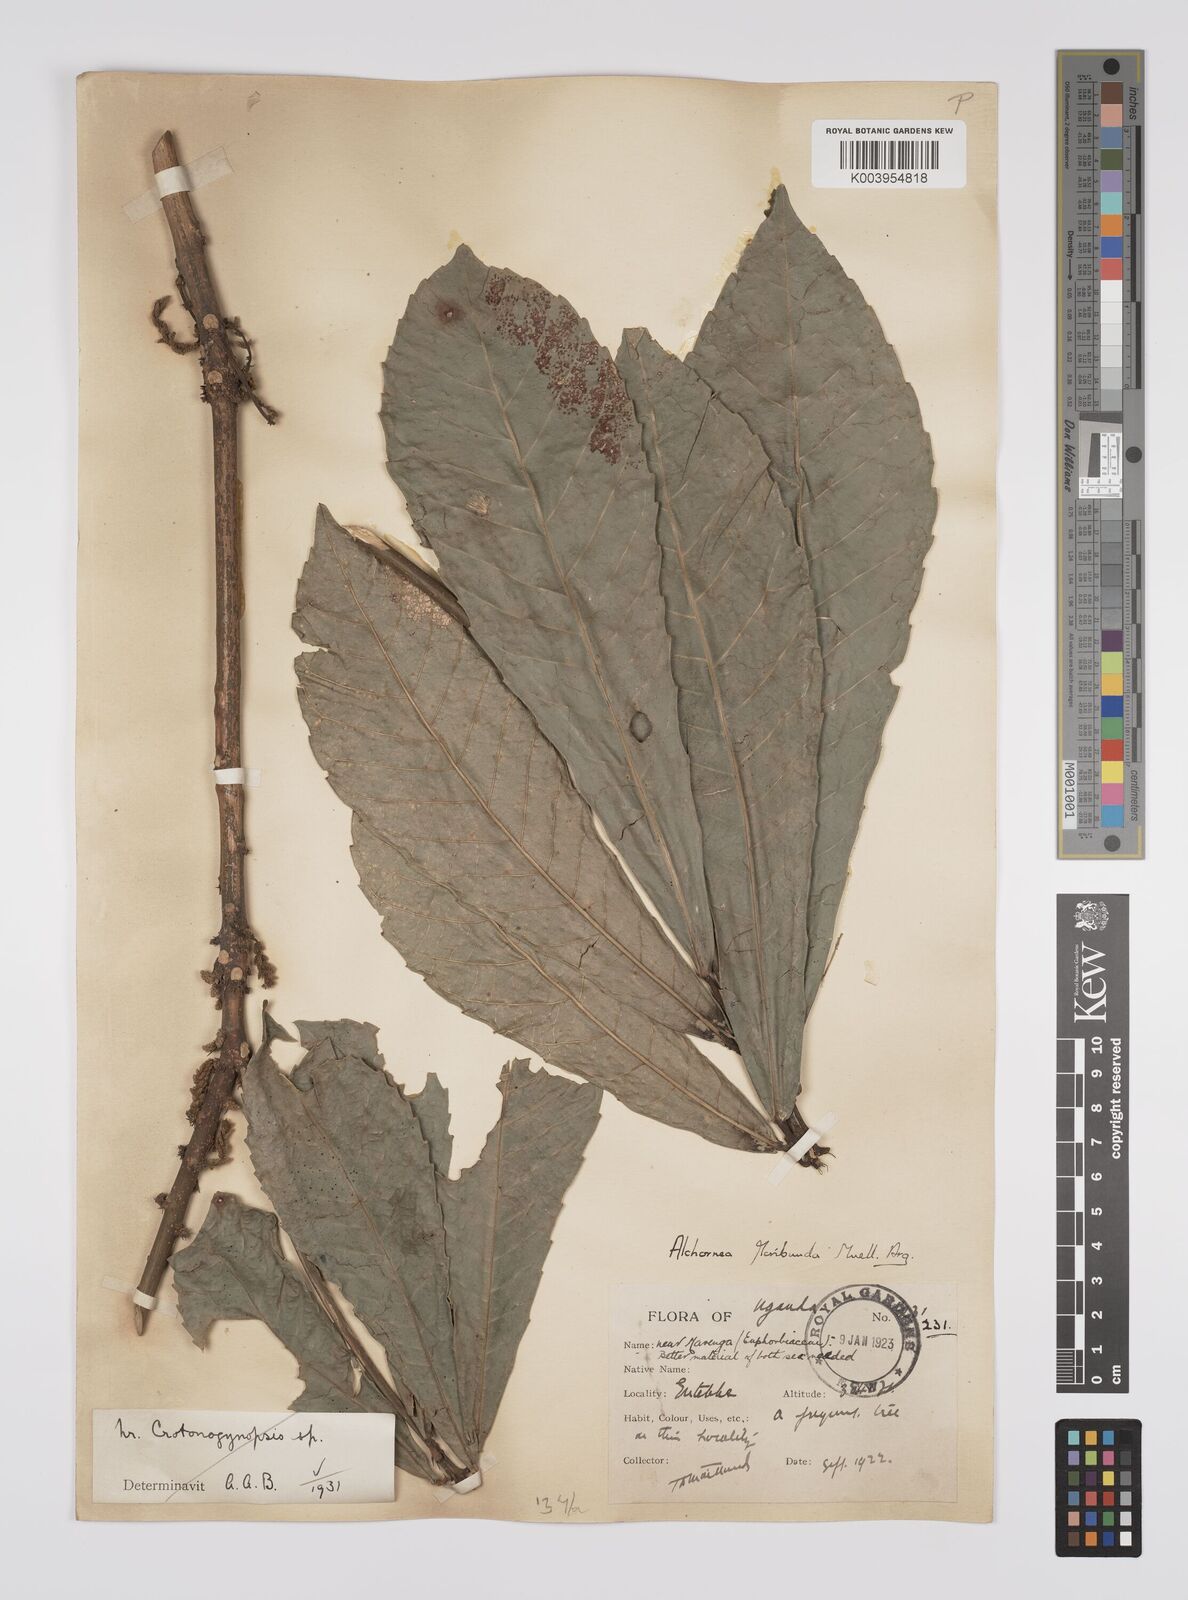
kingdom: Plantae
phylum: Tracheophyta
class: Magnoliopsida
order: Malpighiales
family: Euphorbiaceae
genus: Alchornea
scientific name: Alchornea floribunda
